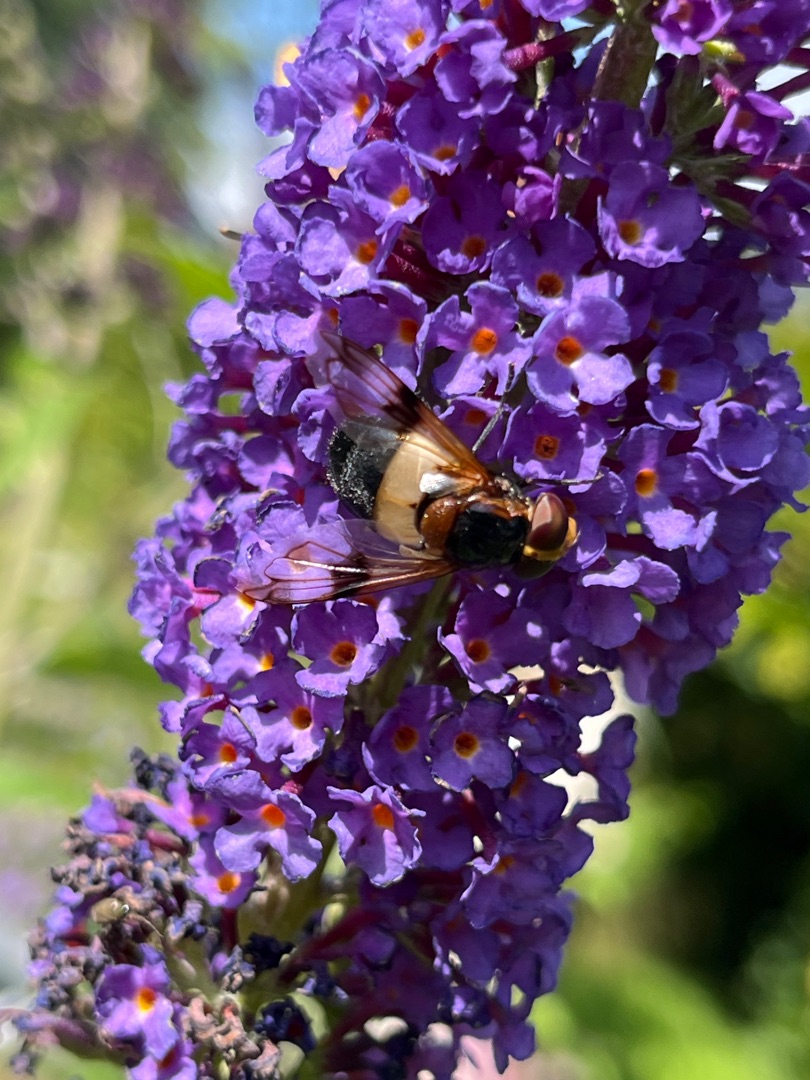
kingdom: Animalia
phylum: Arthropoda
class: Insecta
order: Diptera
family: Syrphidae
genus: Volucella
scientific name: Volucella pellucens
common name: Hvidbåndet humlesvirreflue
